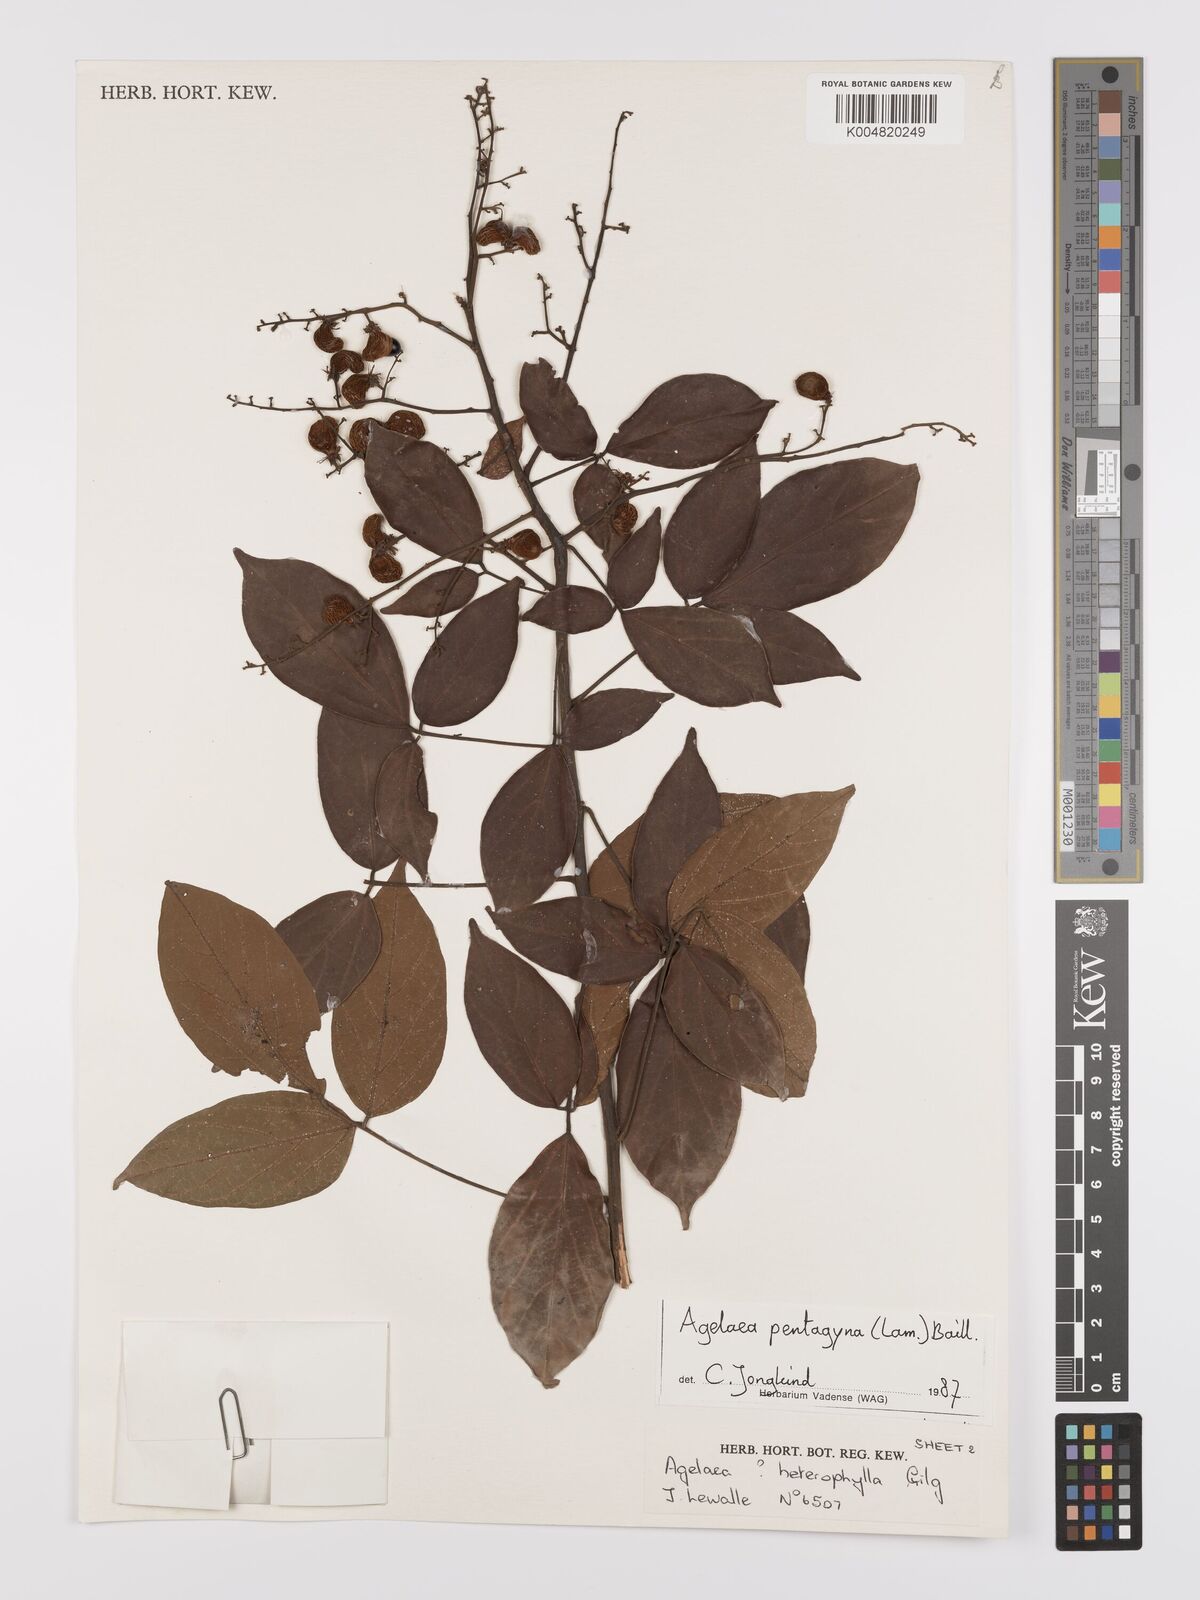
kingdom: Plantae
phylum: Tracheophyta
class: Magnoliopsida
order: Oxalidales
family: Connaraceae
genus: Agelaea
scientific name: Agelaea pentagyna
